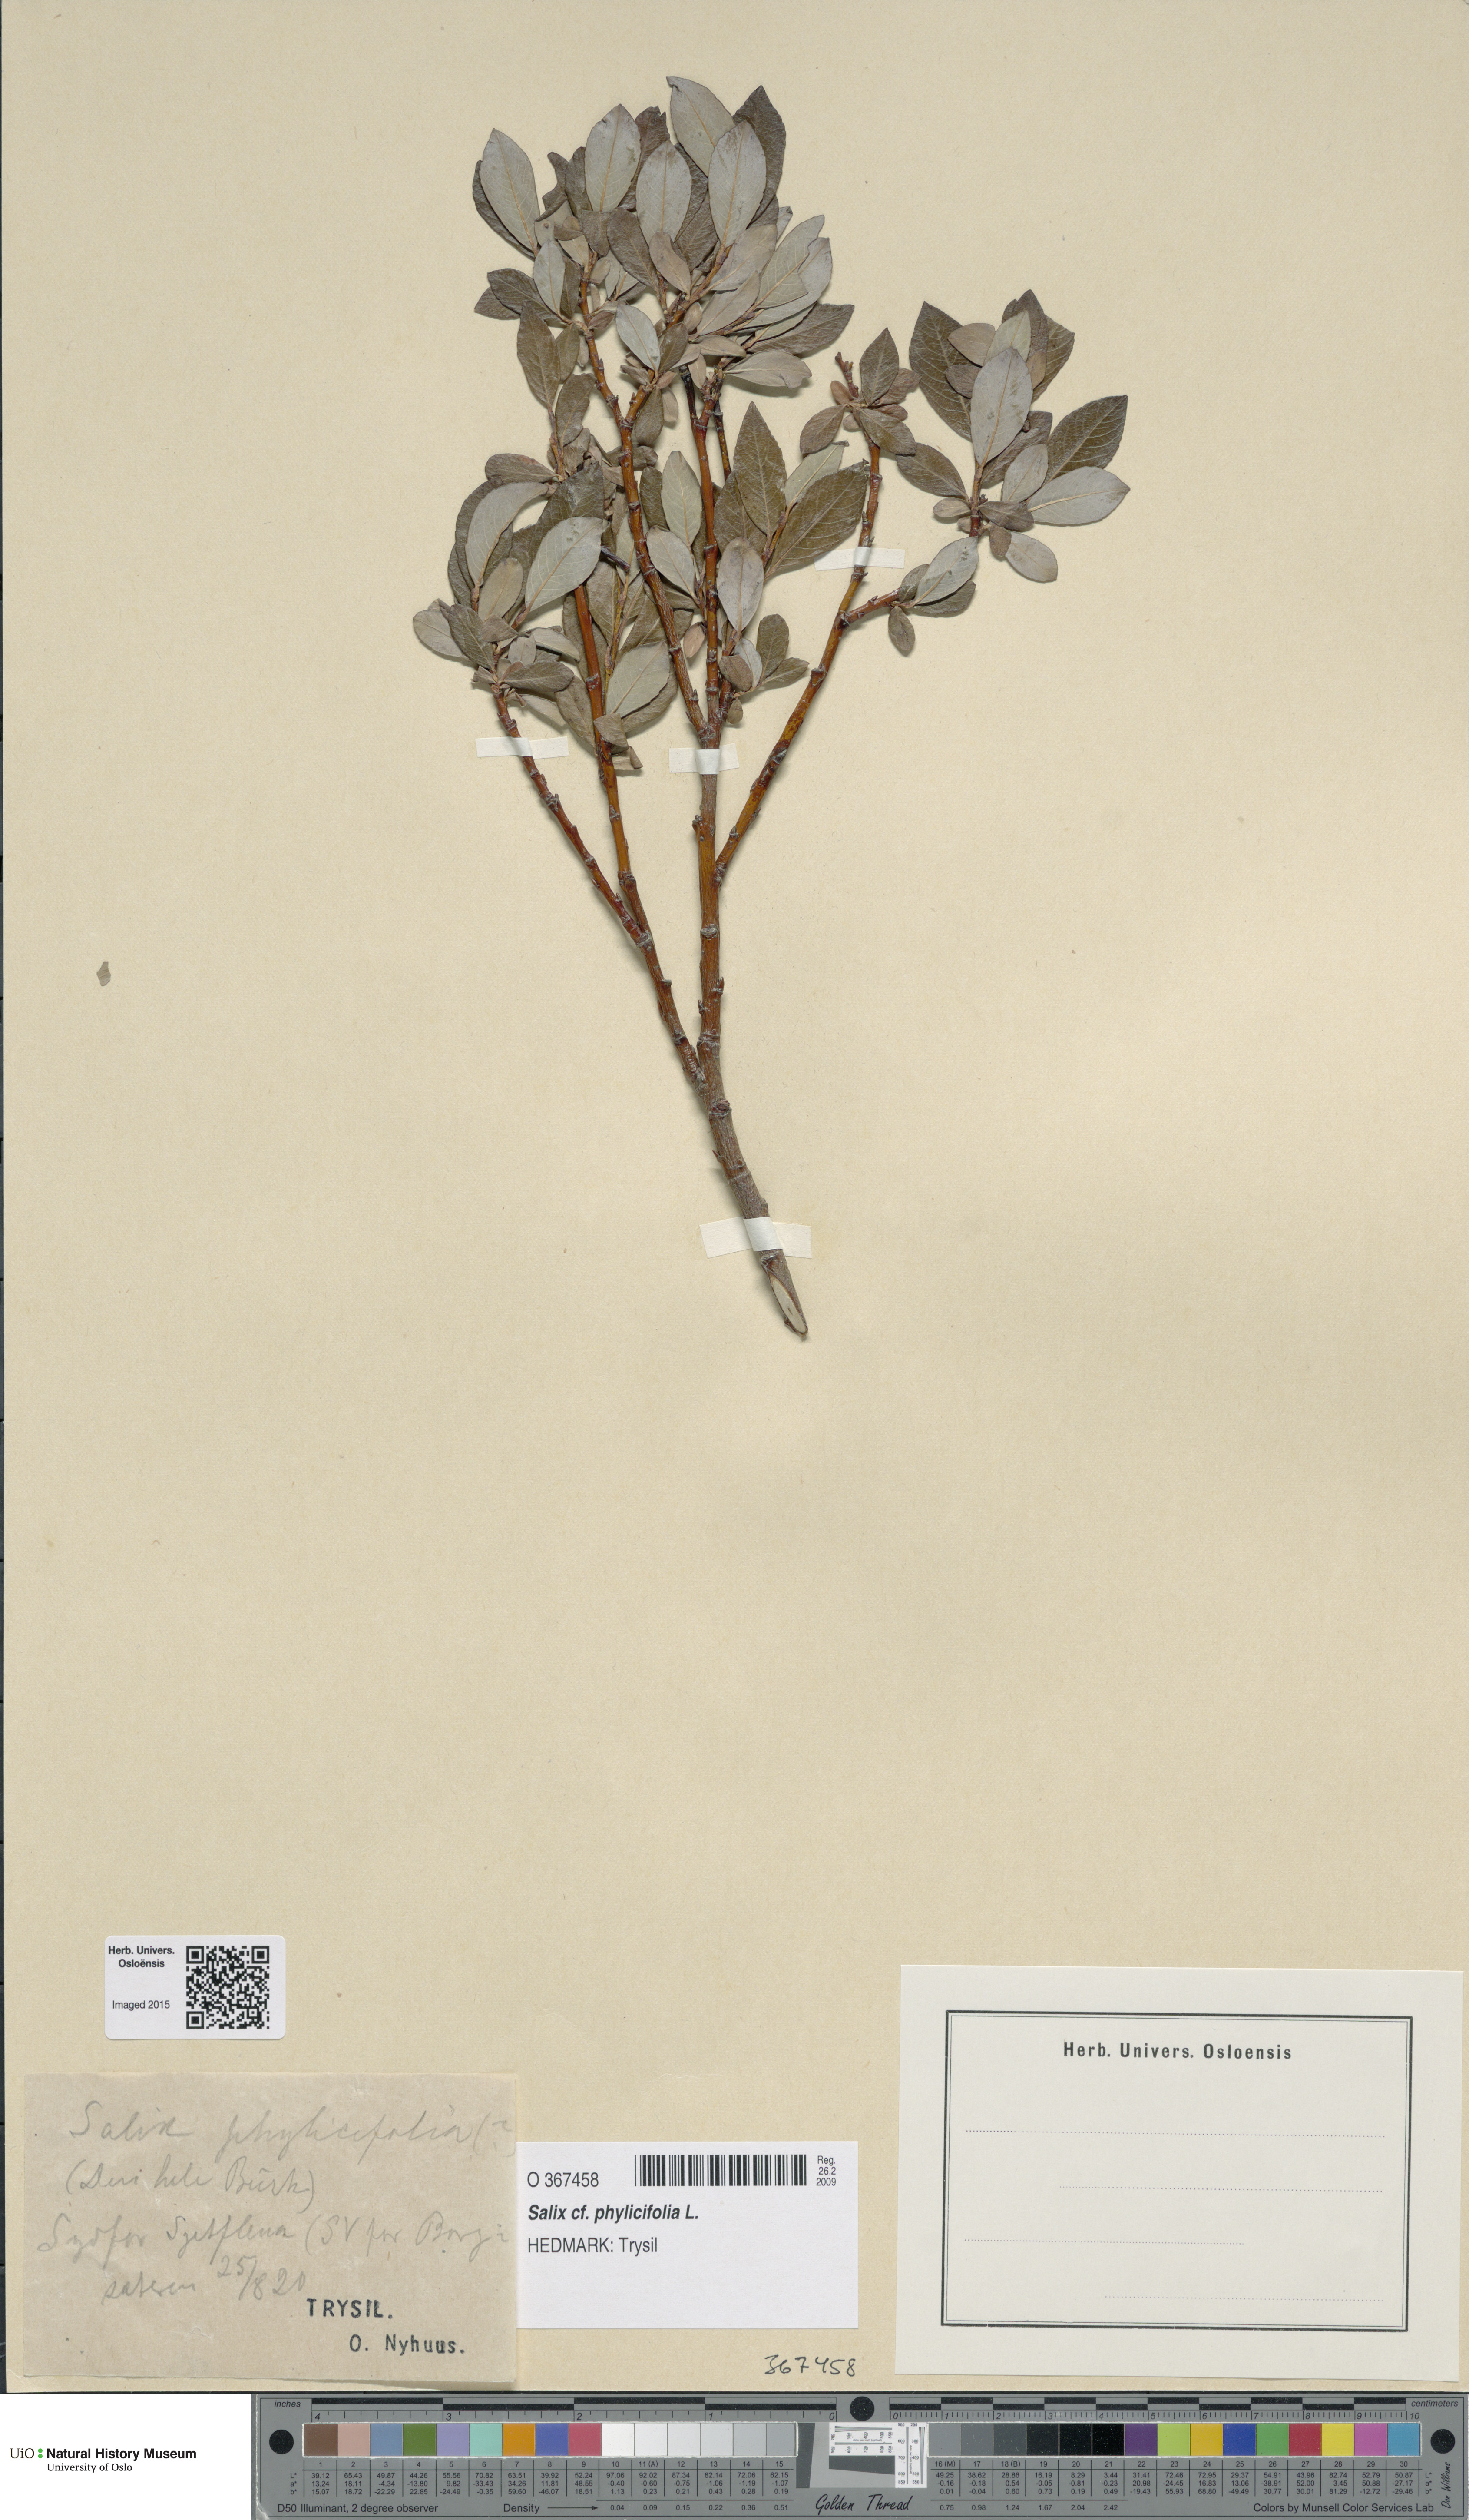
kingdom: Plantae
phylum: Tracheophyta
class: Magnoliopsida
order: Malpighiales
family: Salicaceae
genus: Salix
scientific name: Salix phylicifolia
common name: Tea-leaved willow
